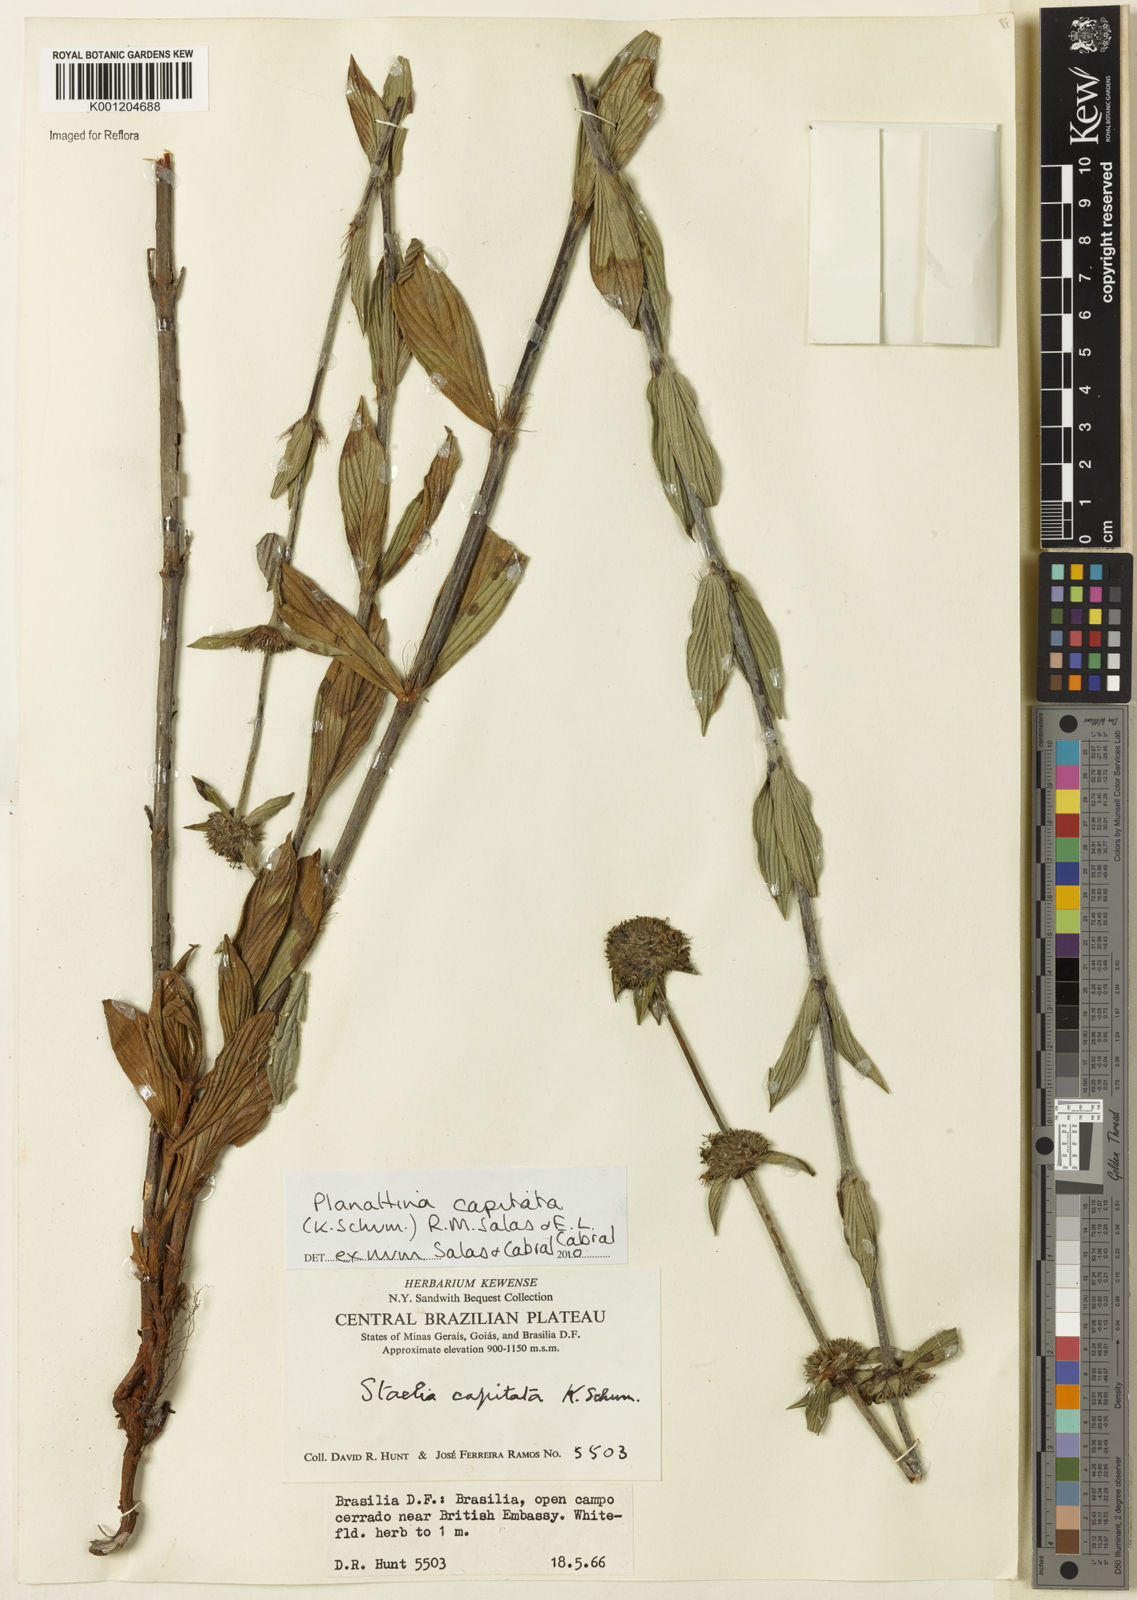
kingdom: Plantae
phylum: Tracheophyta
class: Magnoliopsida
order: Gentianales
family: Rubiaceae
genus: Planaltina
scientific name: Planaltina capitata
